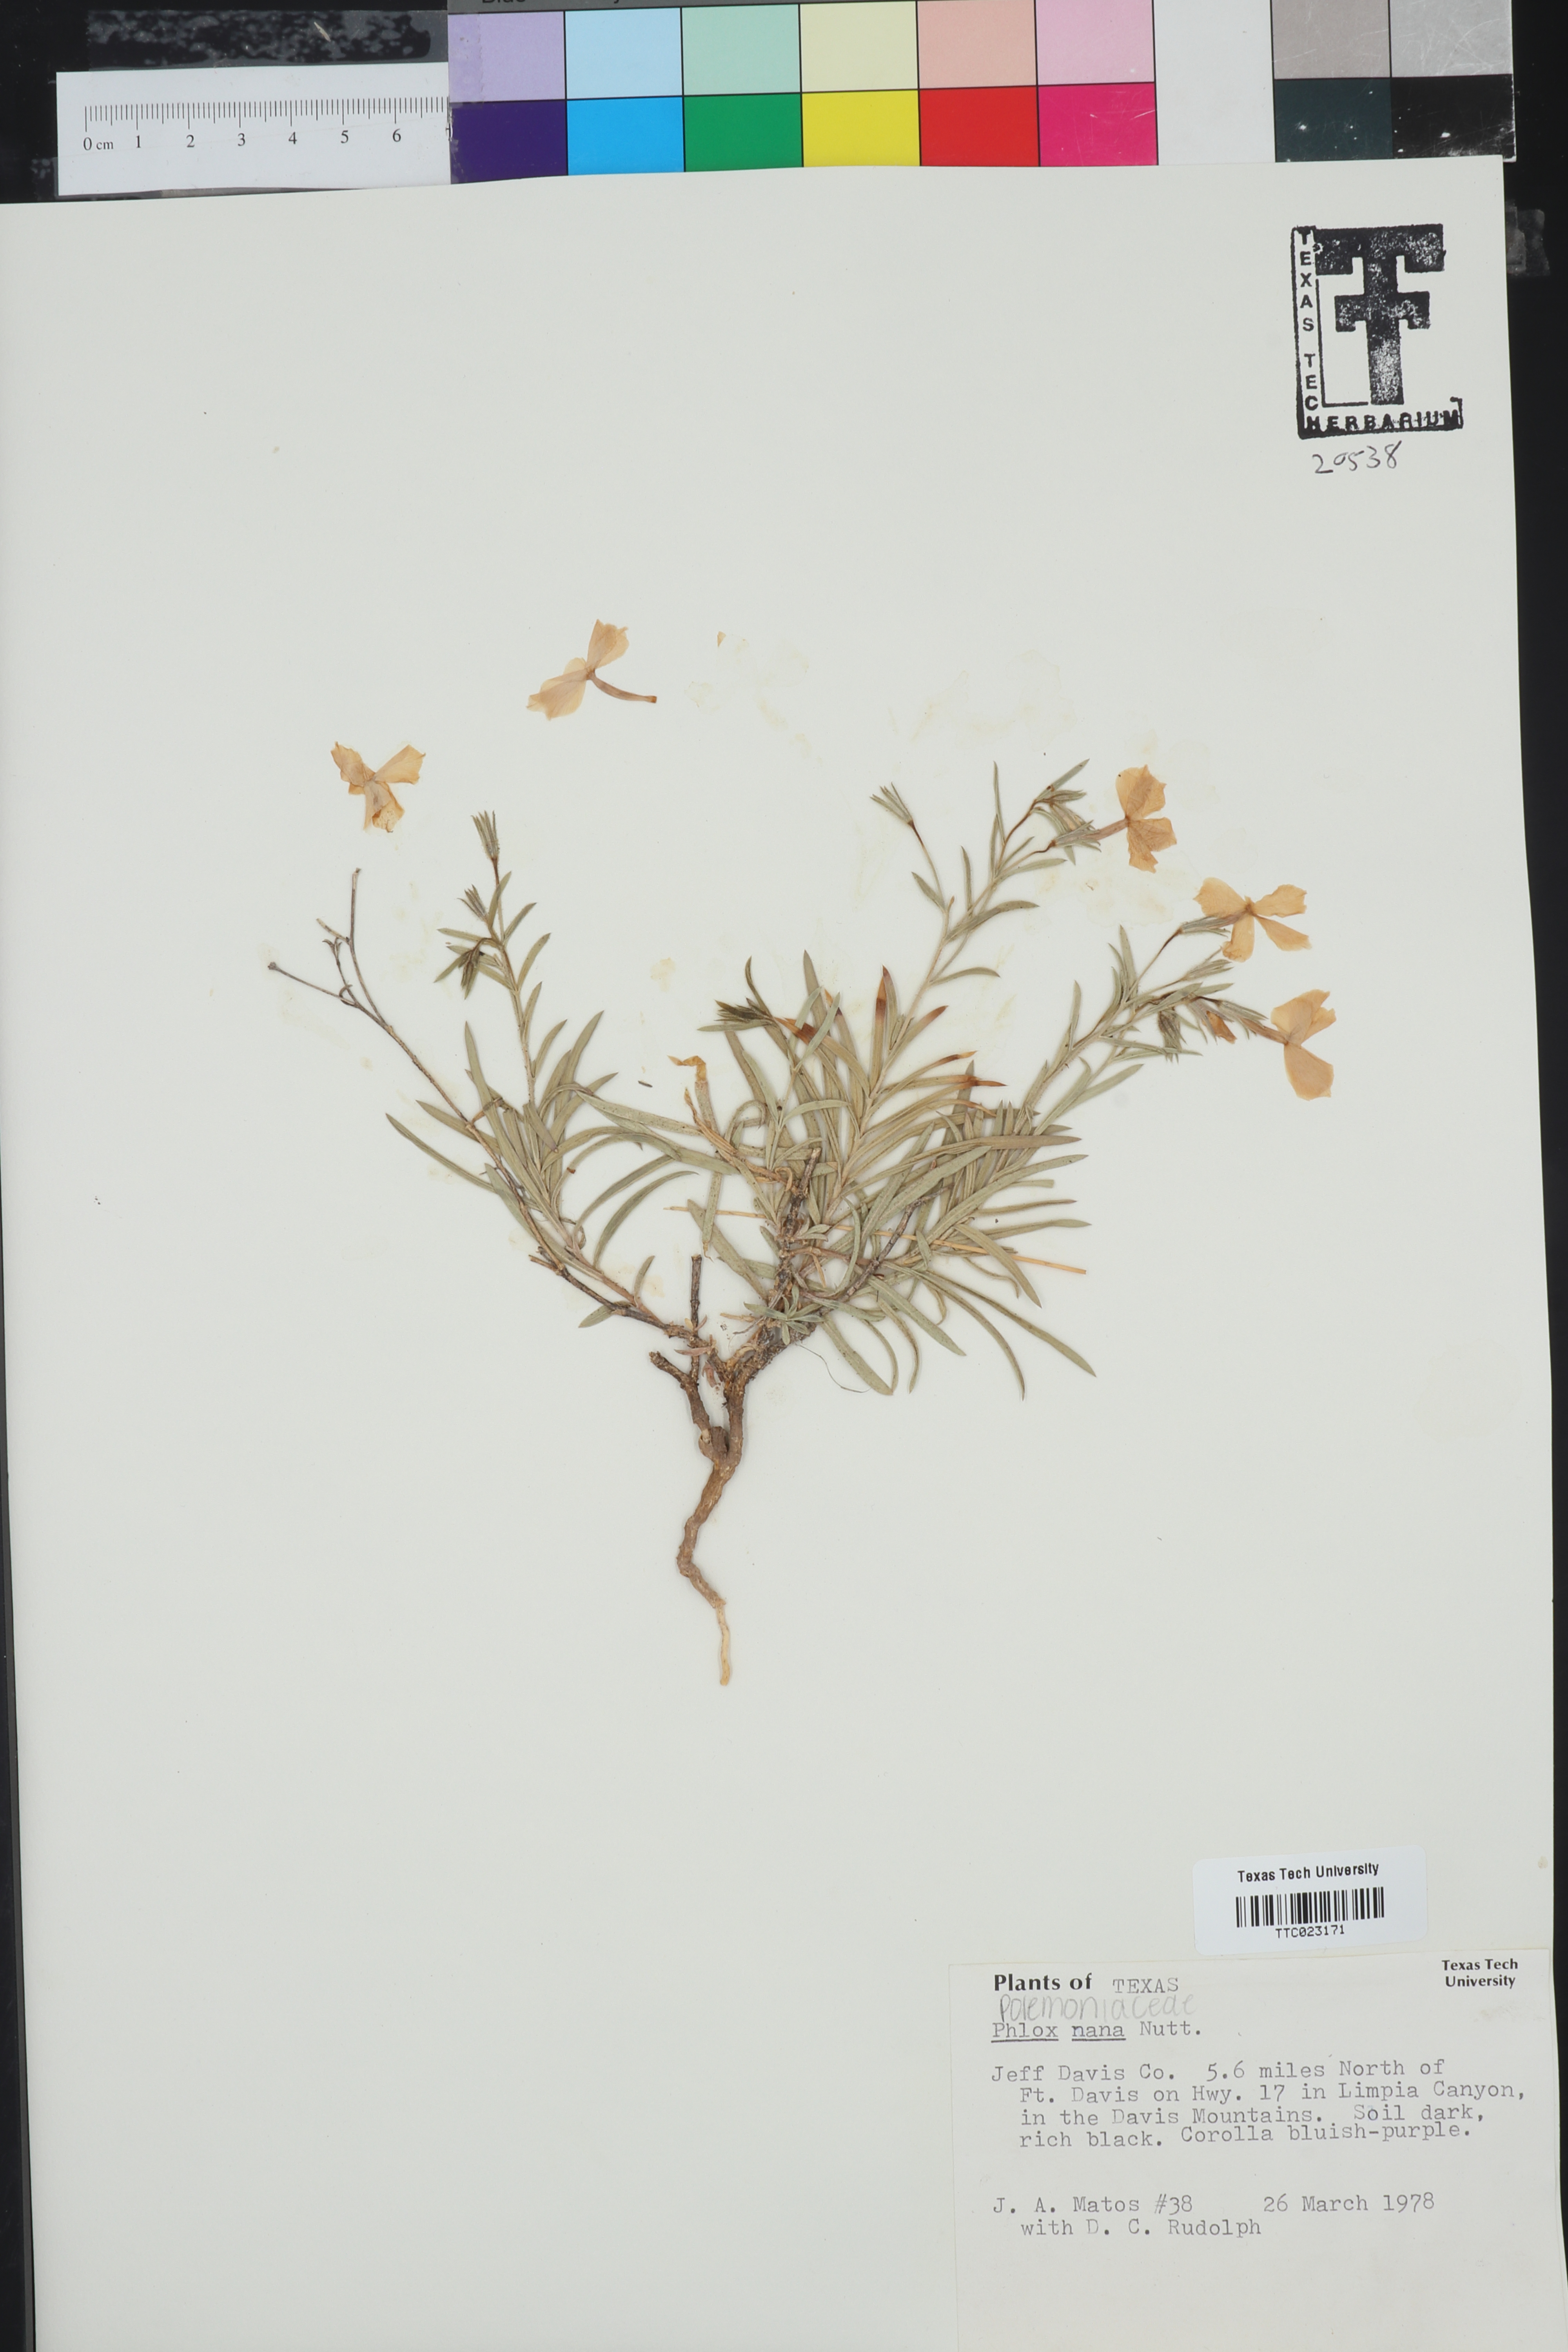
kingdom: Plantae
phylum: Tracheophyta
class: Magnoliopsida
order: Ericales
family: Polemoniaceae
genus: Phlox
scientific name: Phlox nana
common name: Santa fe phlox
